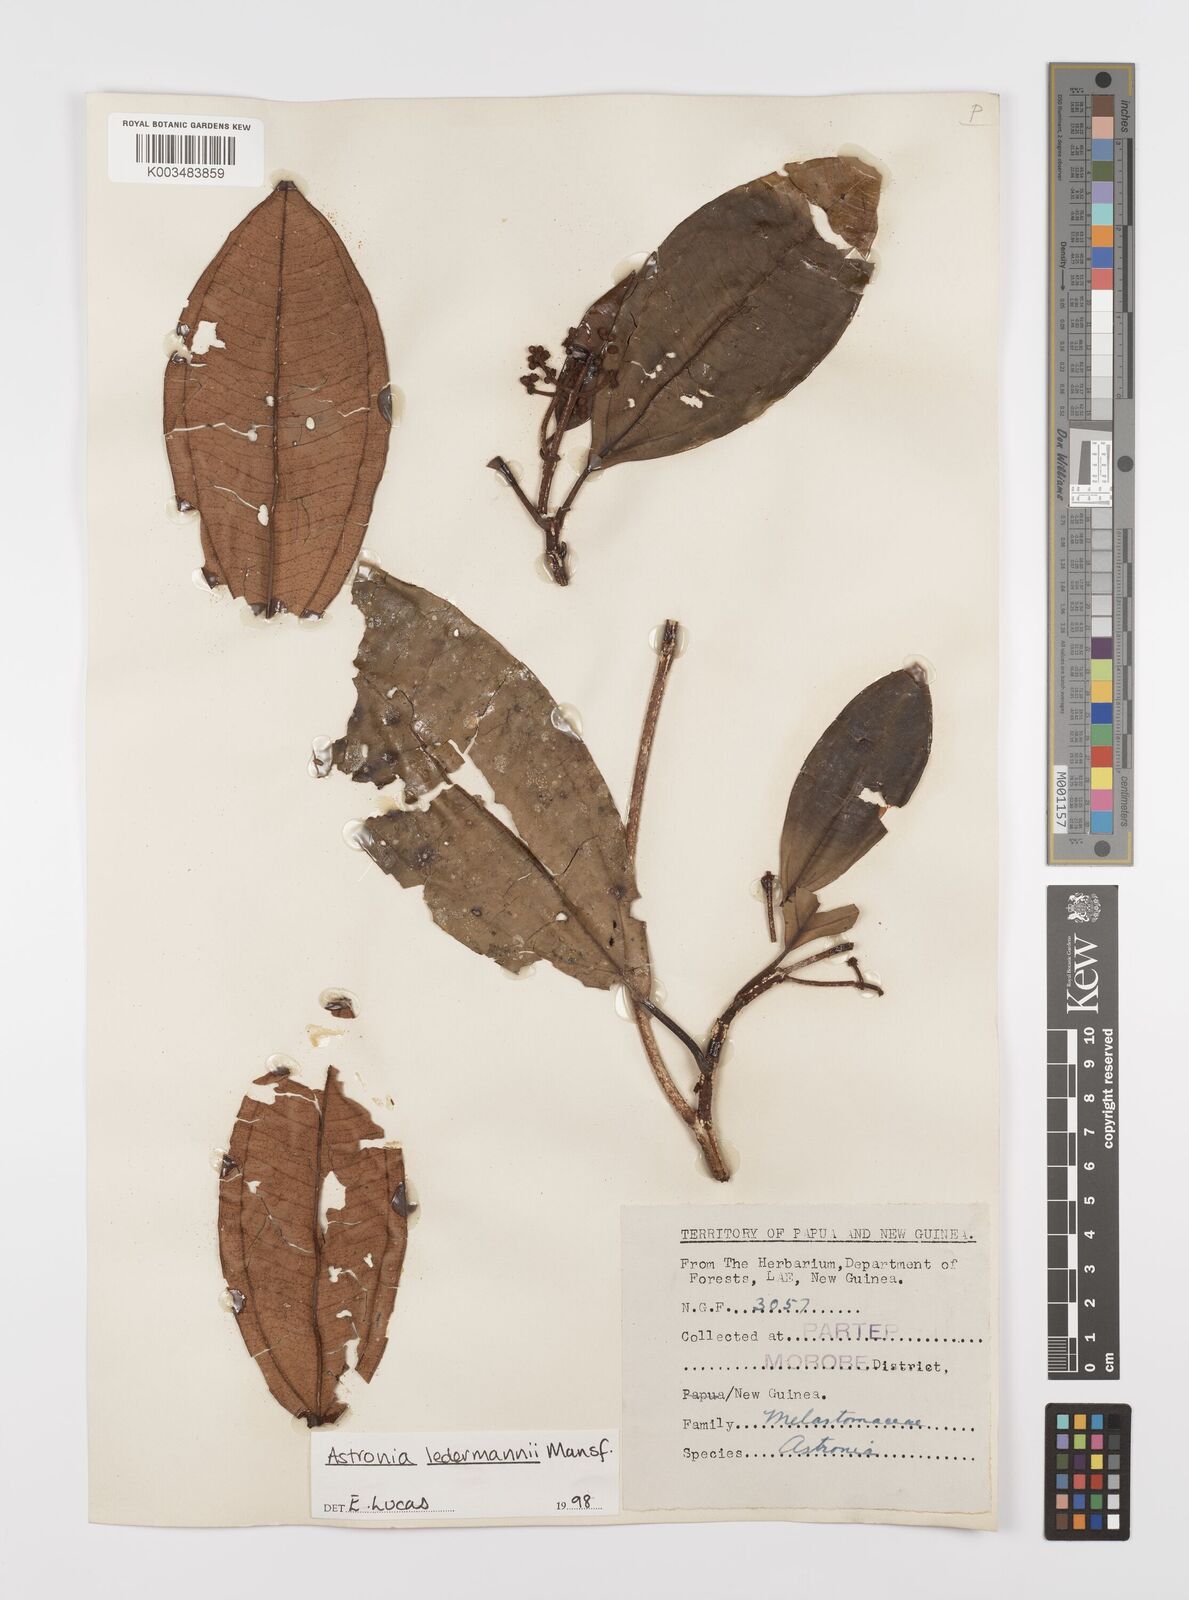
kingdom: Plantae
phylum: Tracheophyta
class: Magnoliopsida
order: Myrtales
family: Melastomataceae
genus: Astronia
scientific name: Astronia ledermannii
